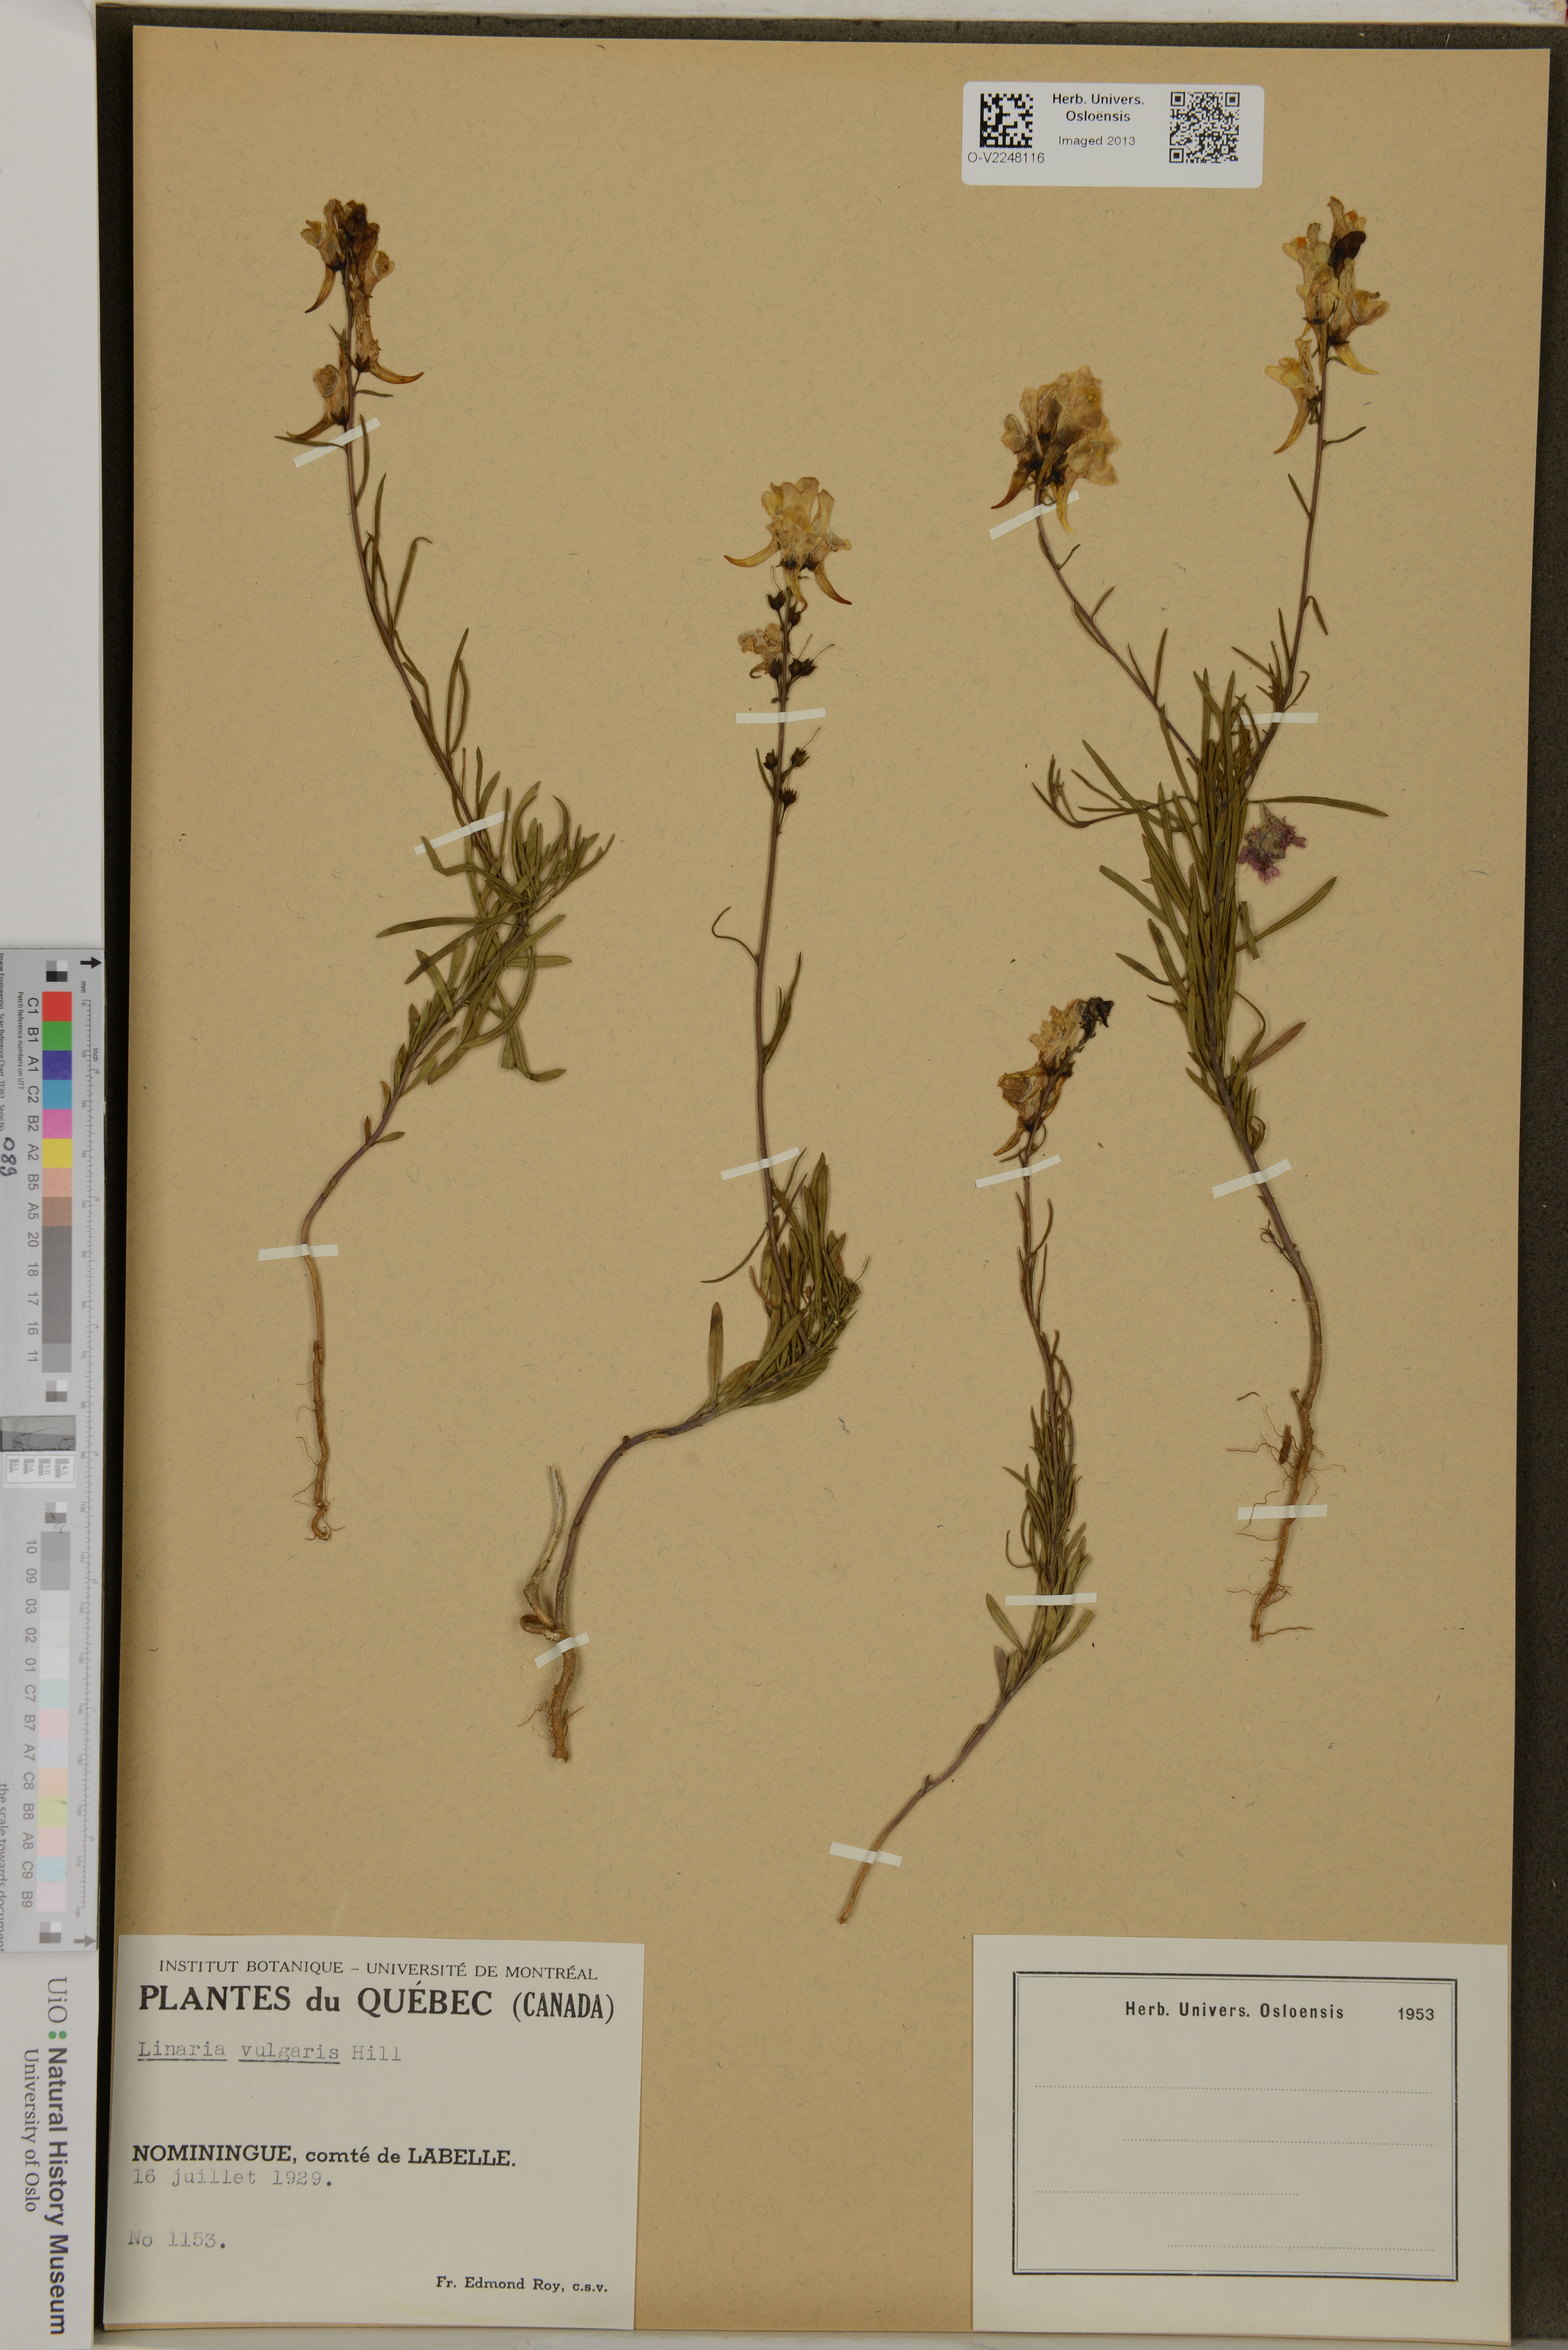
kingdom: Plantae
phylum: Tracheophyta
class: Magnoliopsida
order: Lamiales
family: Plantaginaceae
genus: Linaria
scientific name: Linaria vulgaris
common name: Butter and eggs
